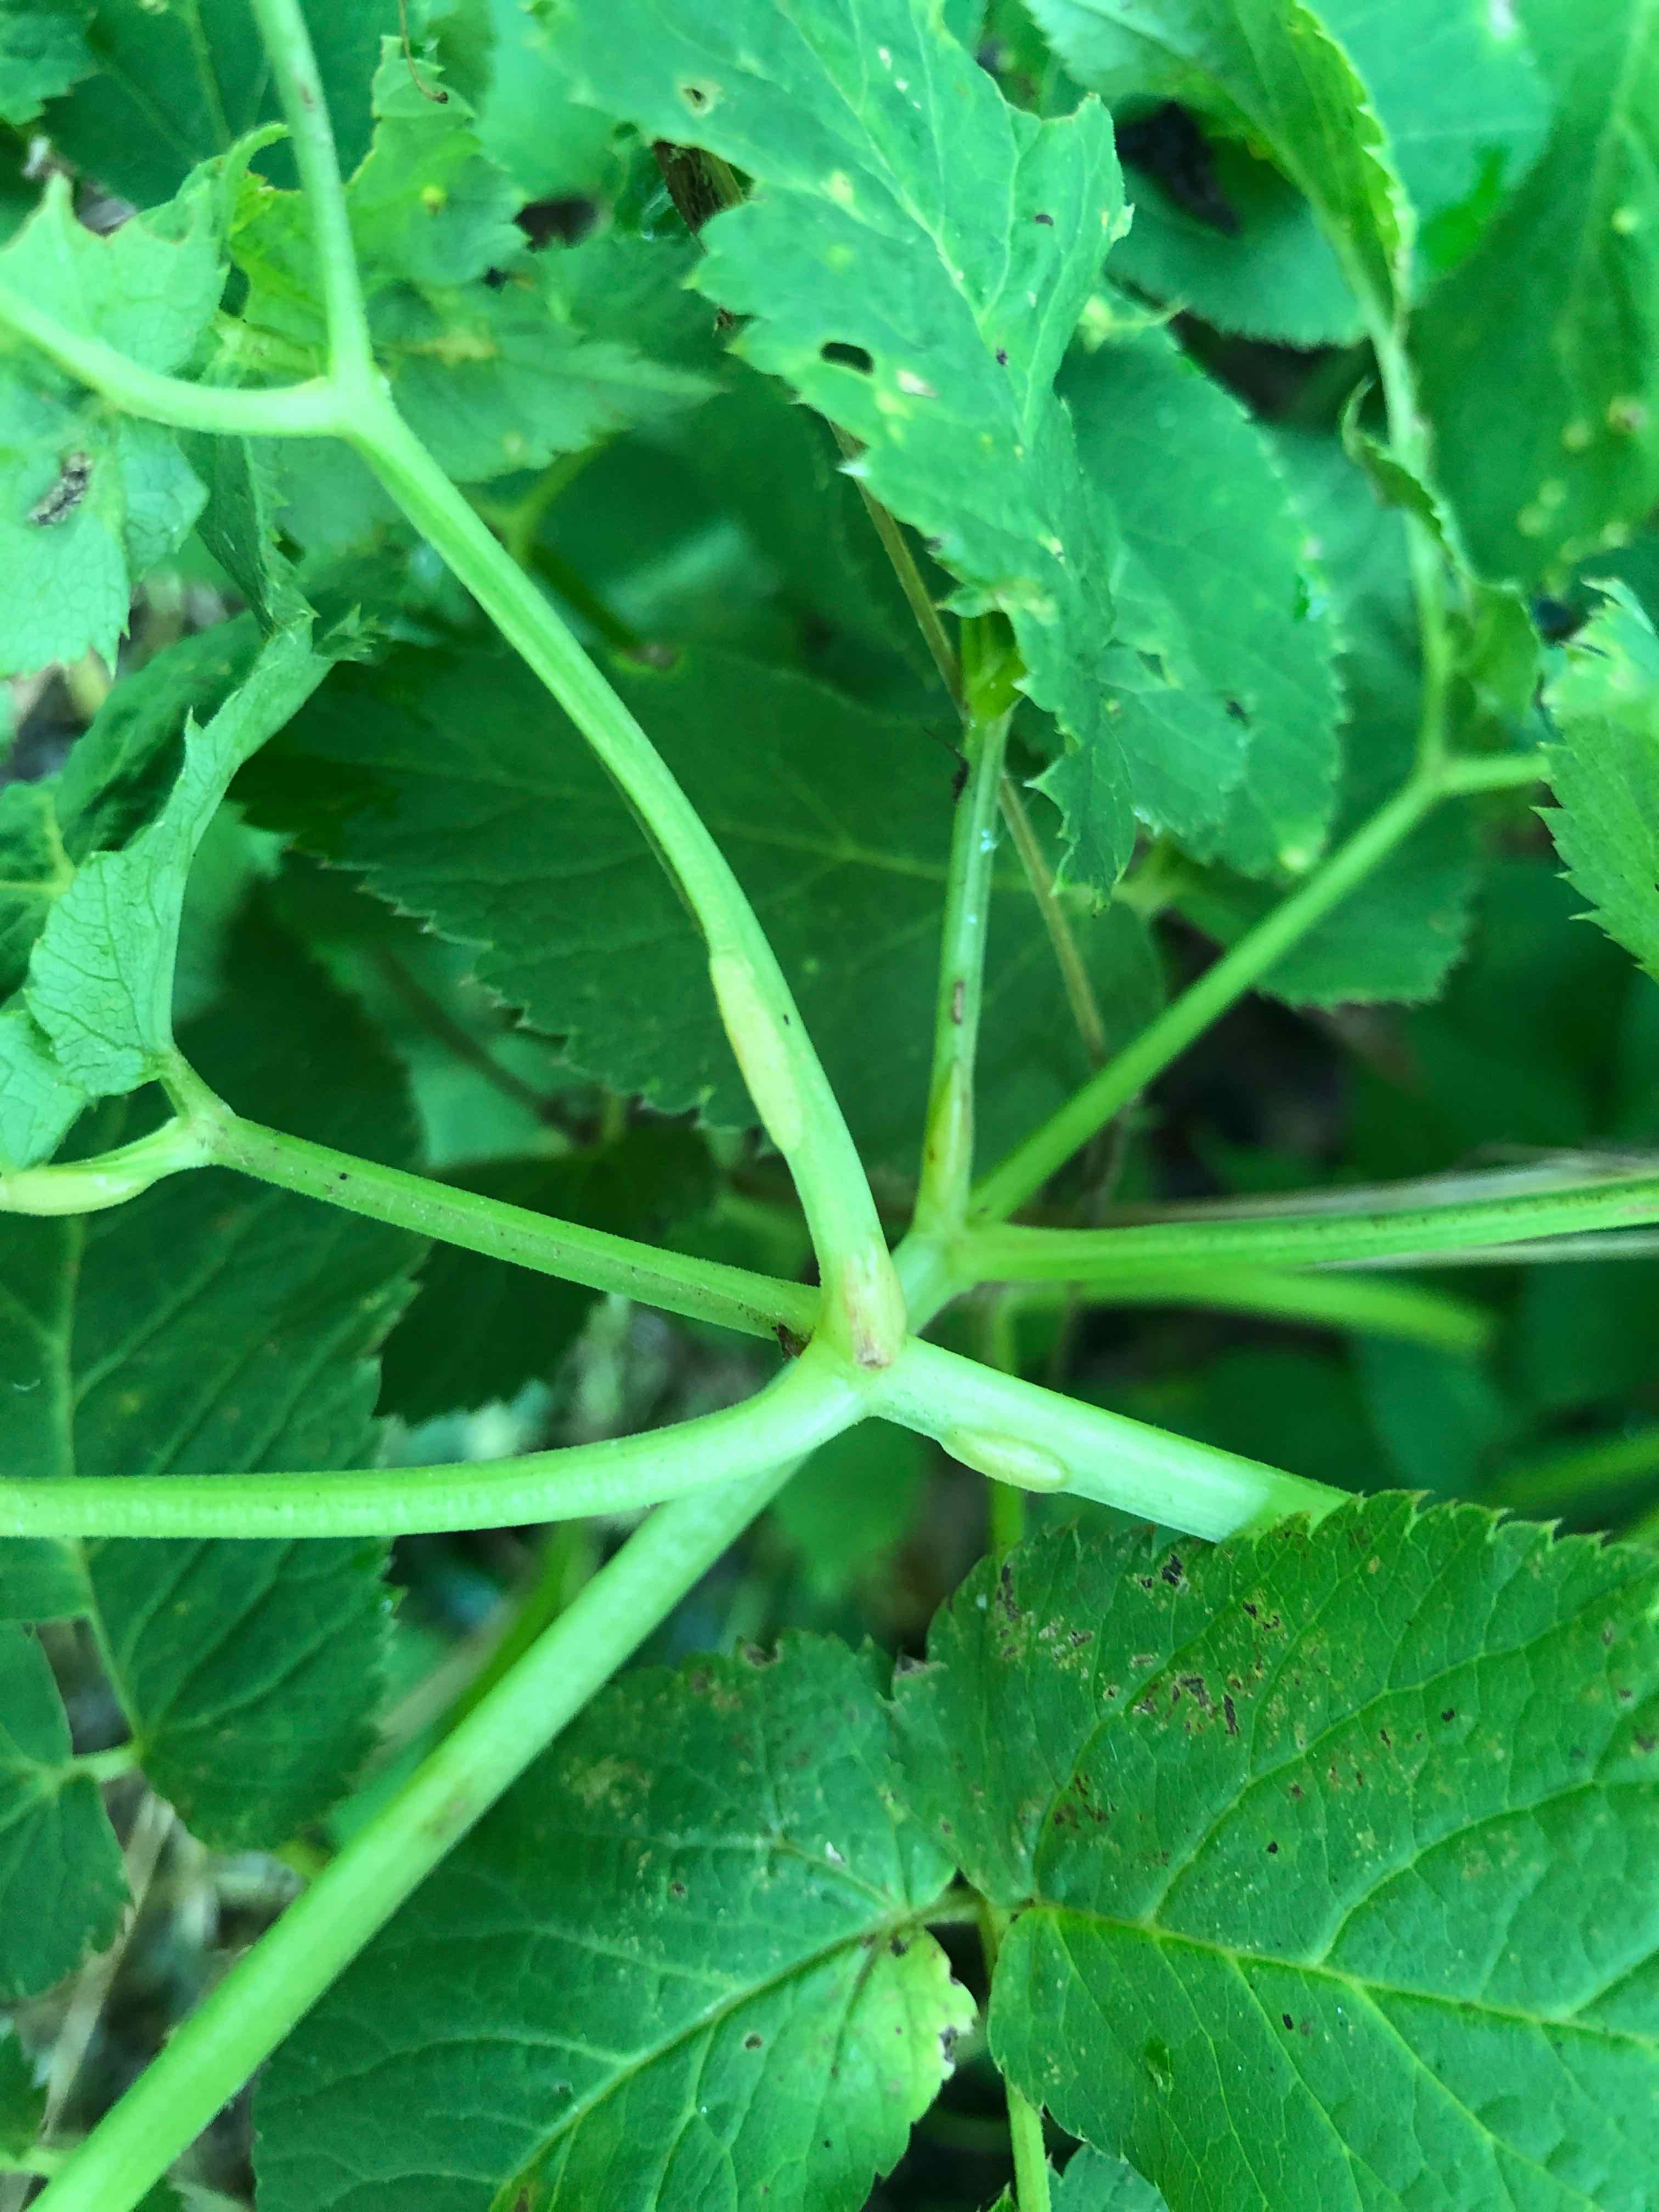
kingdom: Fungi
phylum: Ascomycota
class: Taphrinomycetes
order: Taphrinales
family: Taphrinaceae
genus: Protomyces
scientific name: Protomyces macrosporus
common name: skvalderkål-vablesæk
